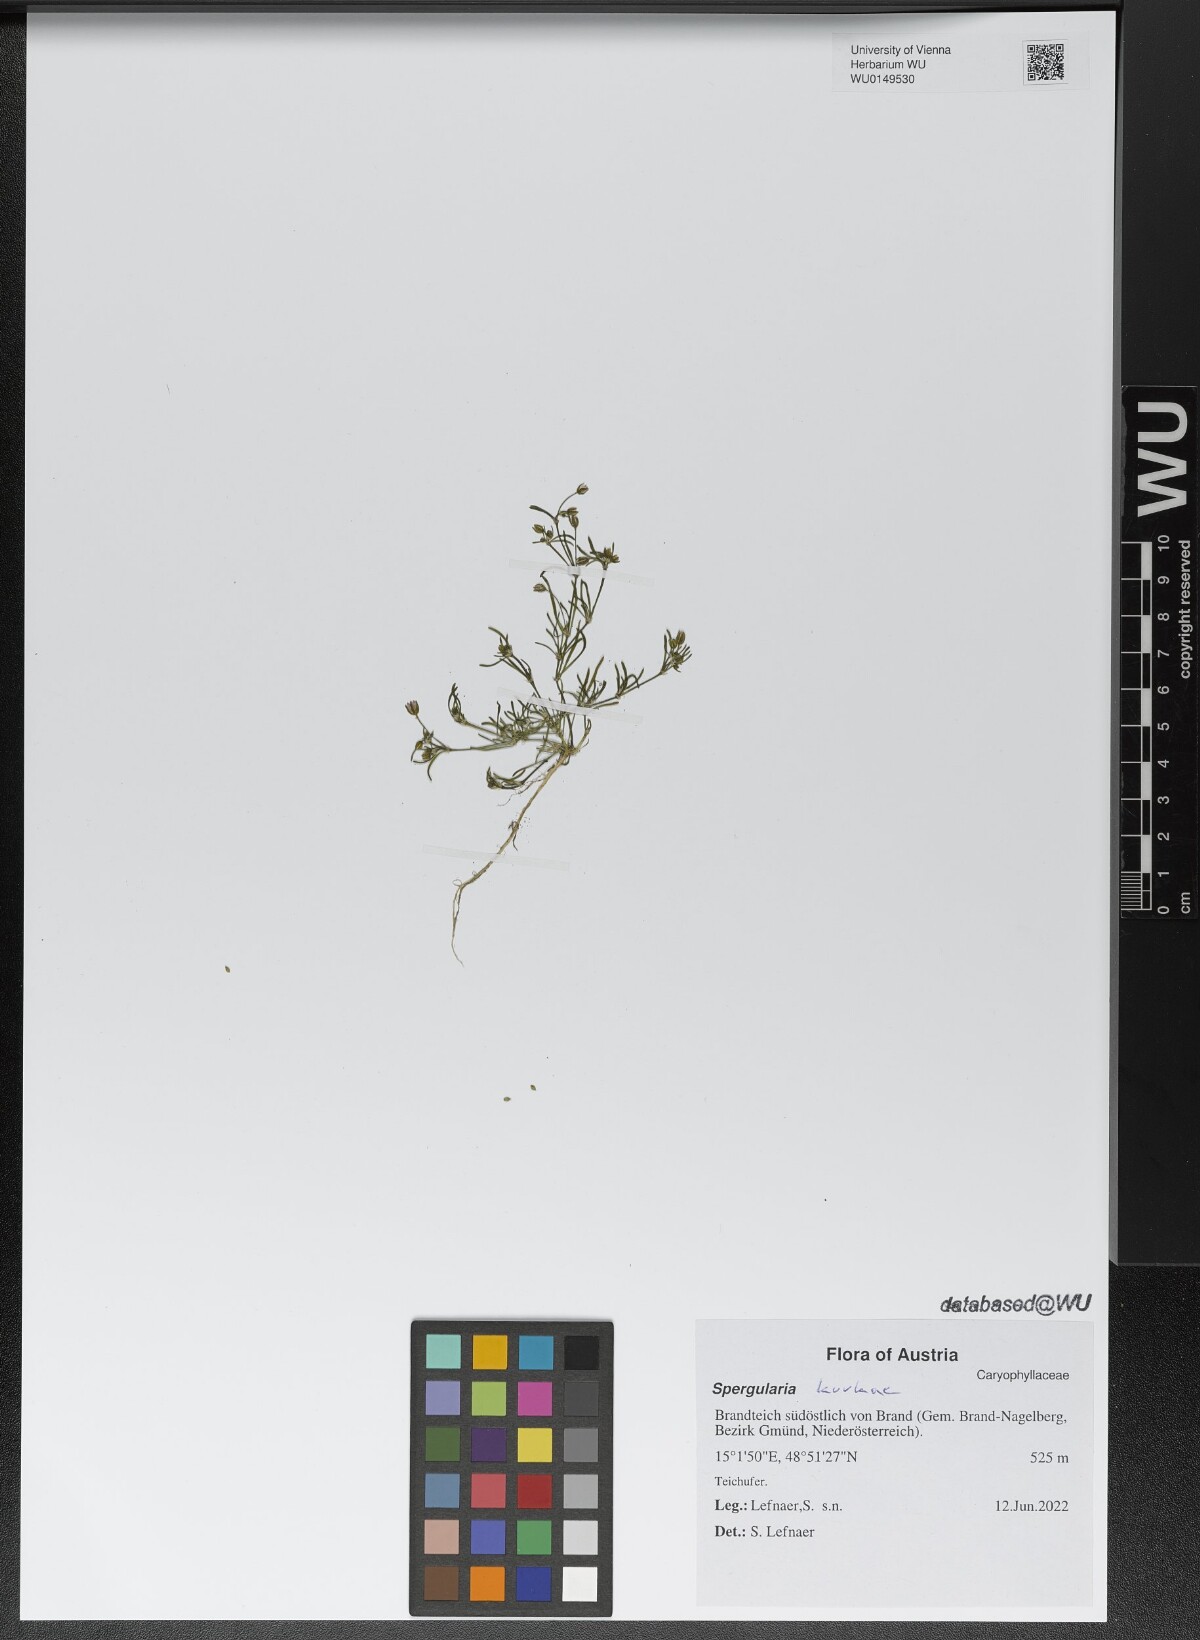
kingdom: Plantae
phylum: Tracheophyta
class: Magnoliopsida
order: Caryophyllales
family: Caryophyllaceae
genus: Spergularia
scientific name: Spergularia kurkae
